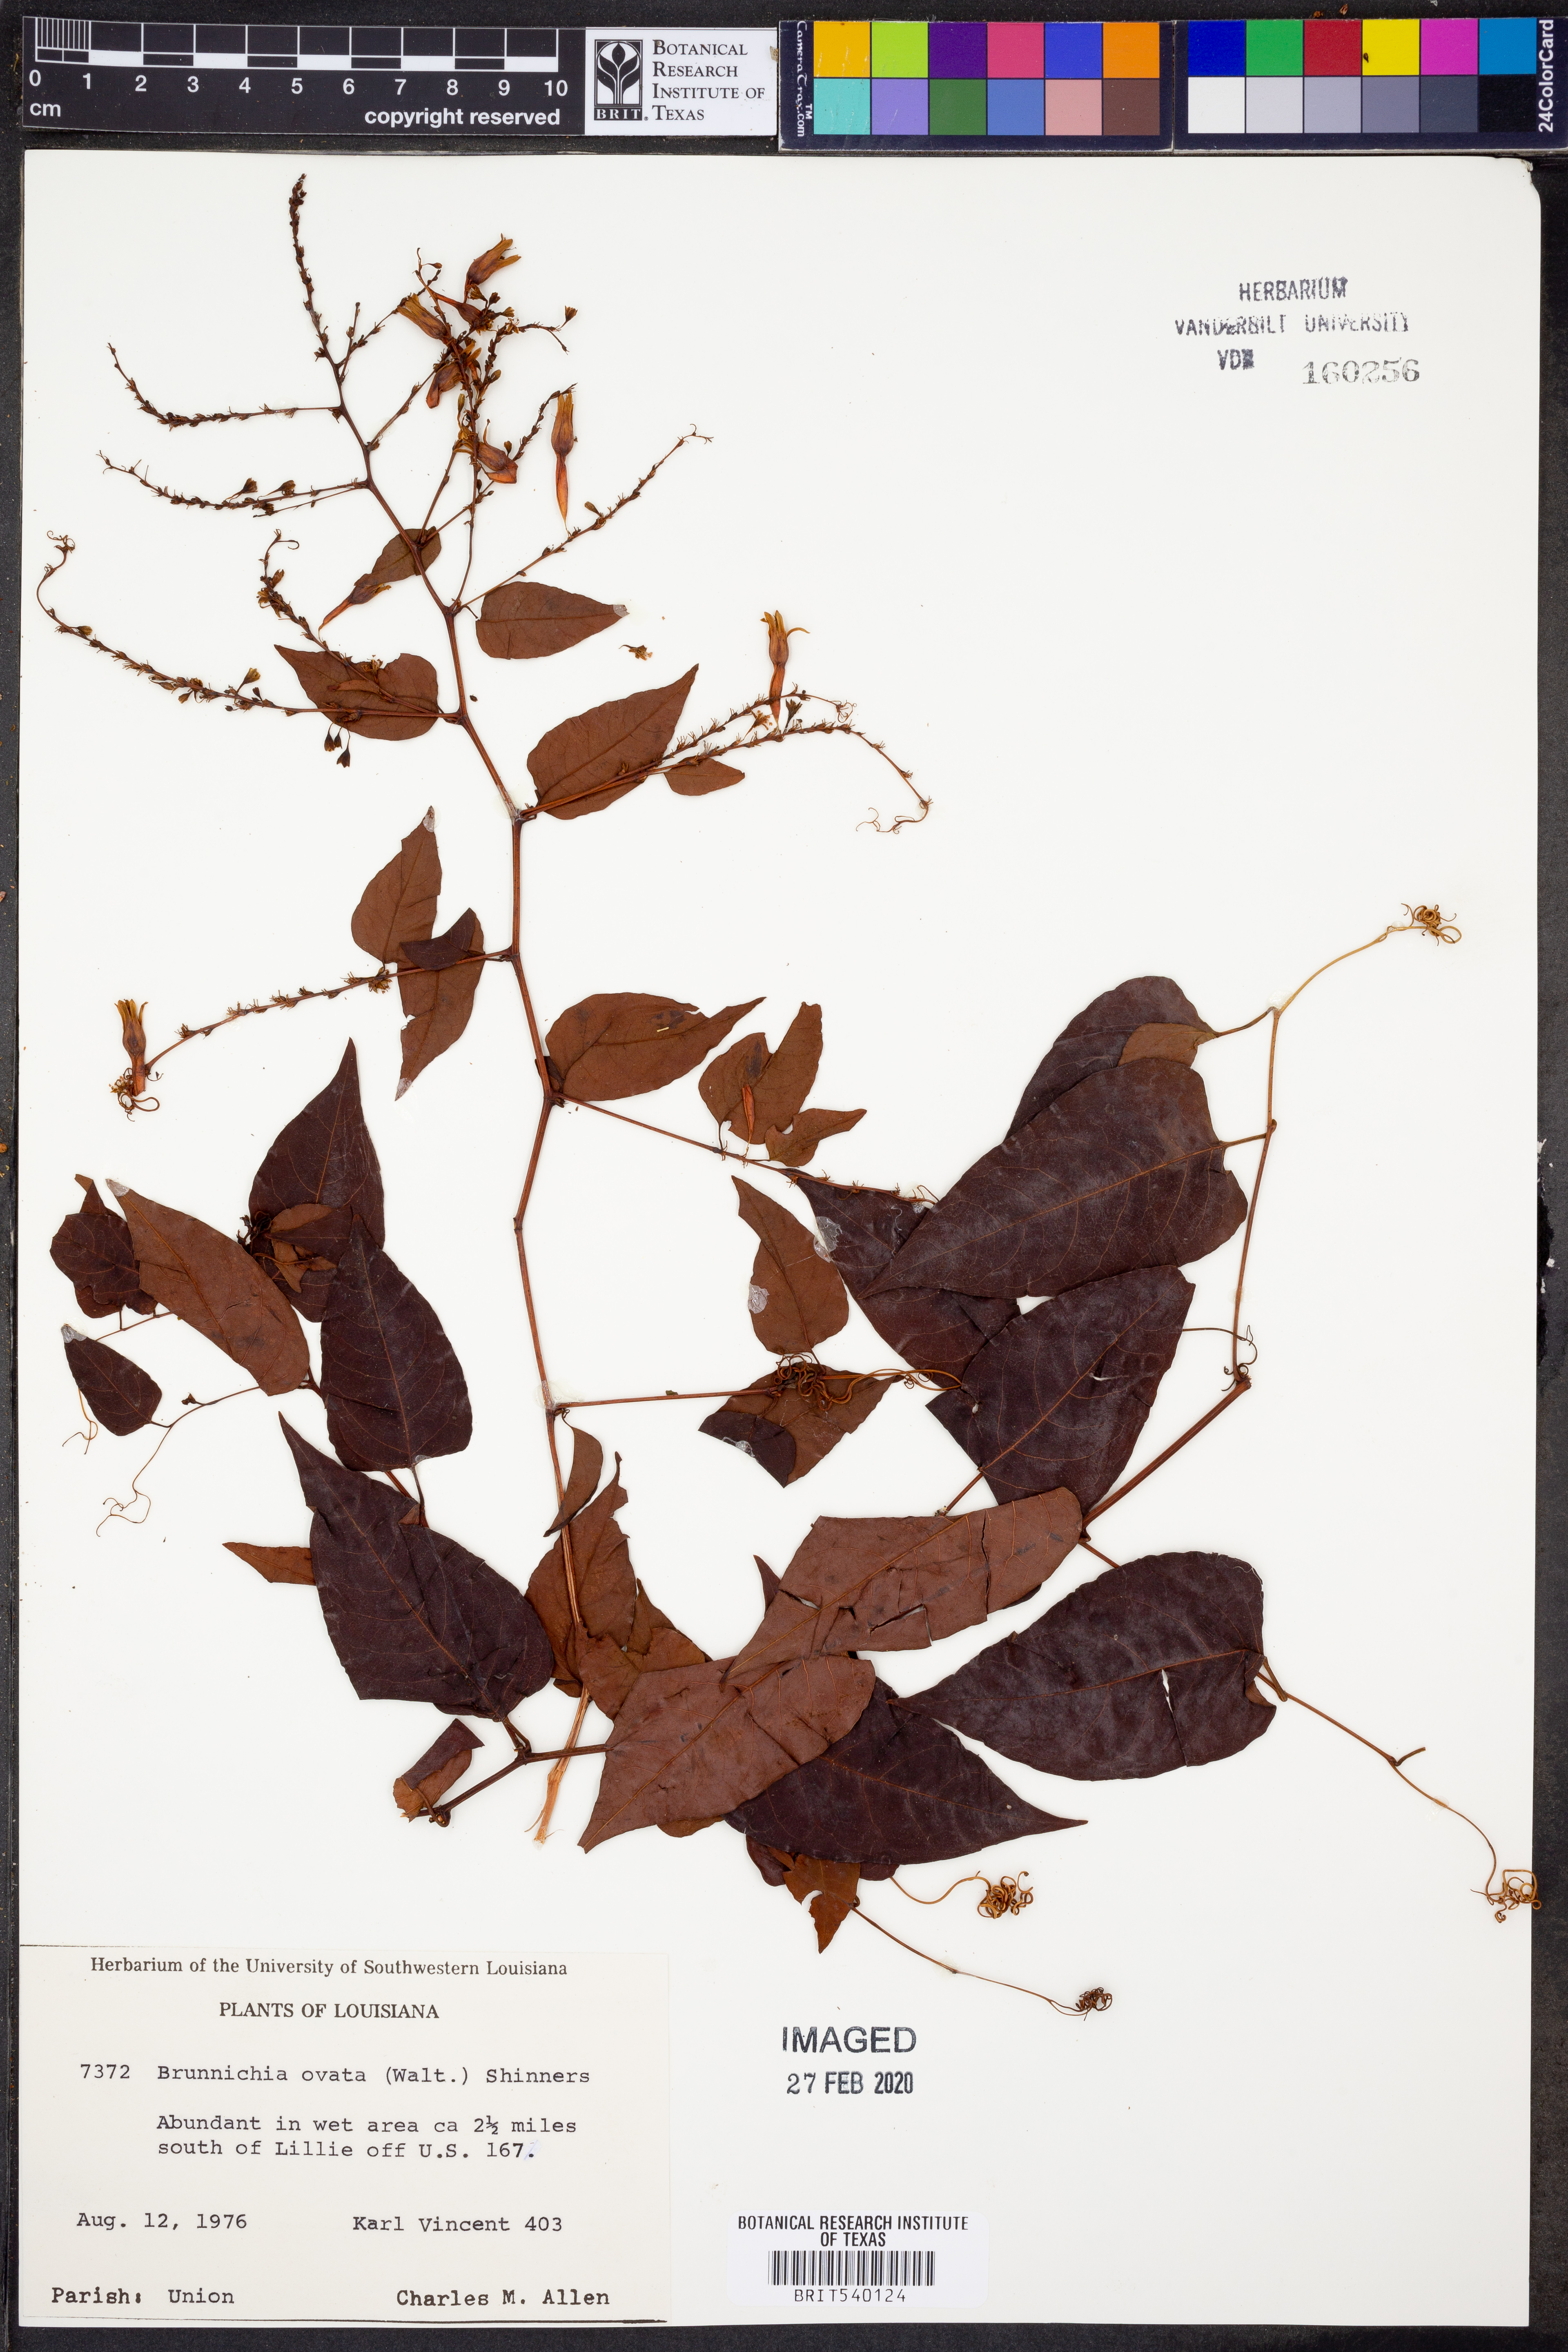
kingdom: Plantae
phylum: Tracheophyta
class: Magnoliopsida
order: Caryophyllales
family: Polygonaceae
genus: Brunnichia
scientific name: Brunnichia ovata
